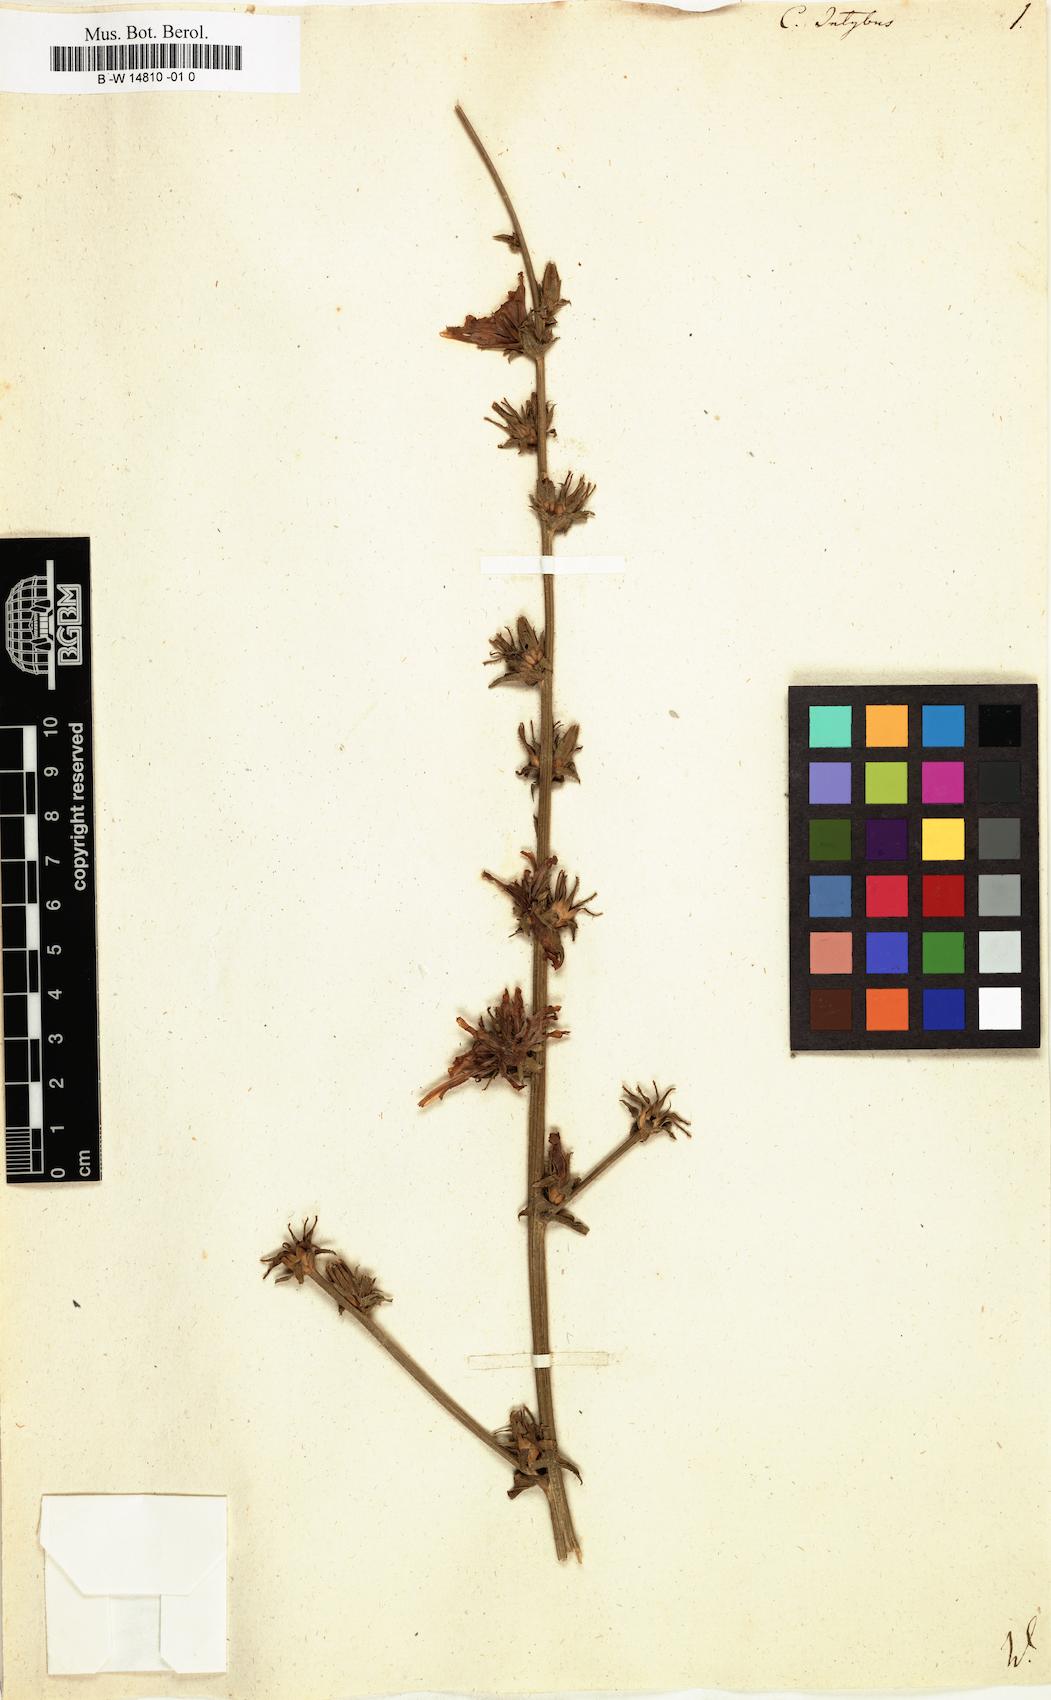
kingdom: Plantae
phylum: Tracheophyta
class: Magnoliopsida
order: Asterales
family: Asteraceae
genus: Cichorium
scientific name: Cichorium intybus
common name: Chicory
